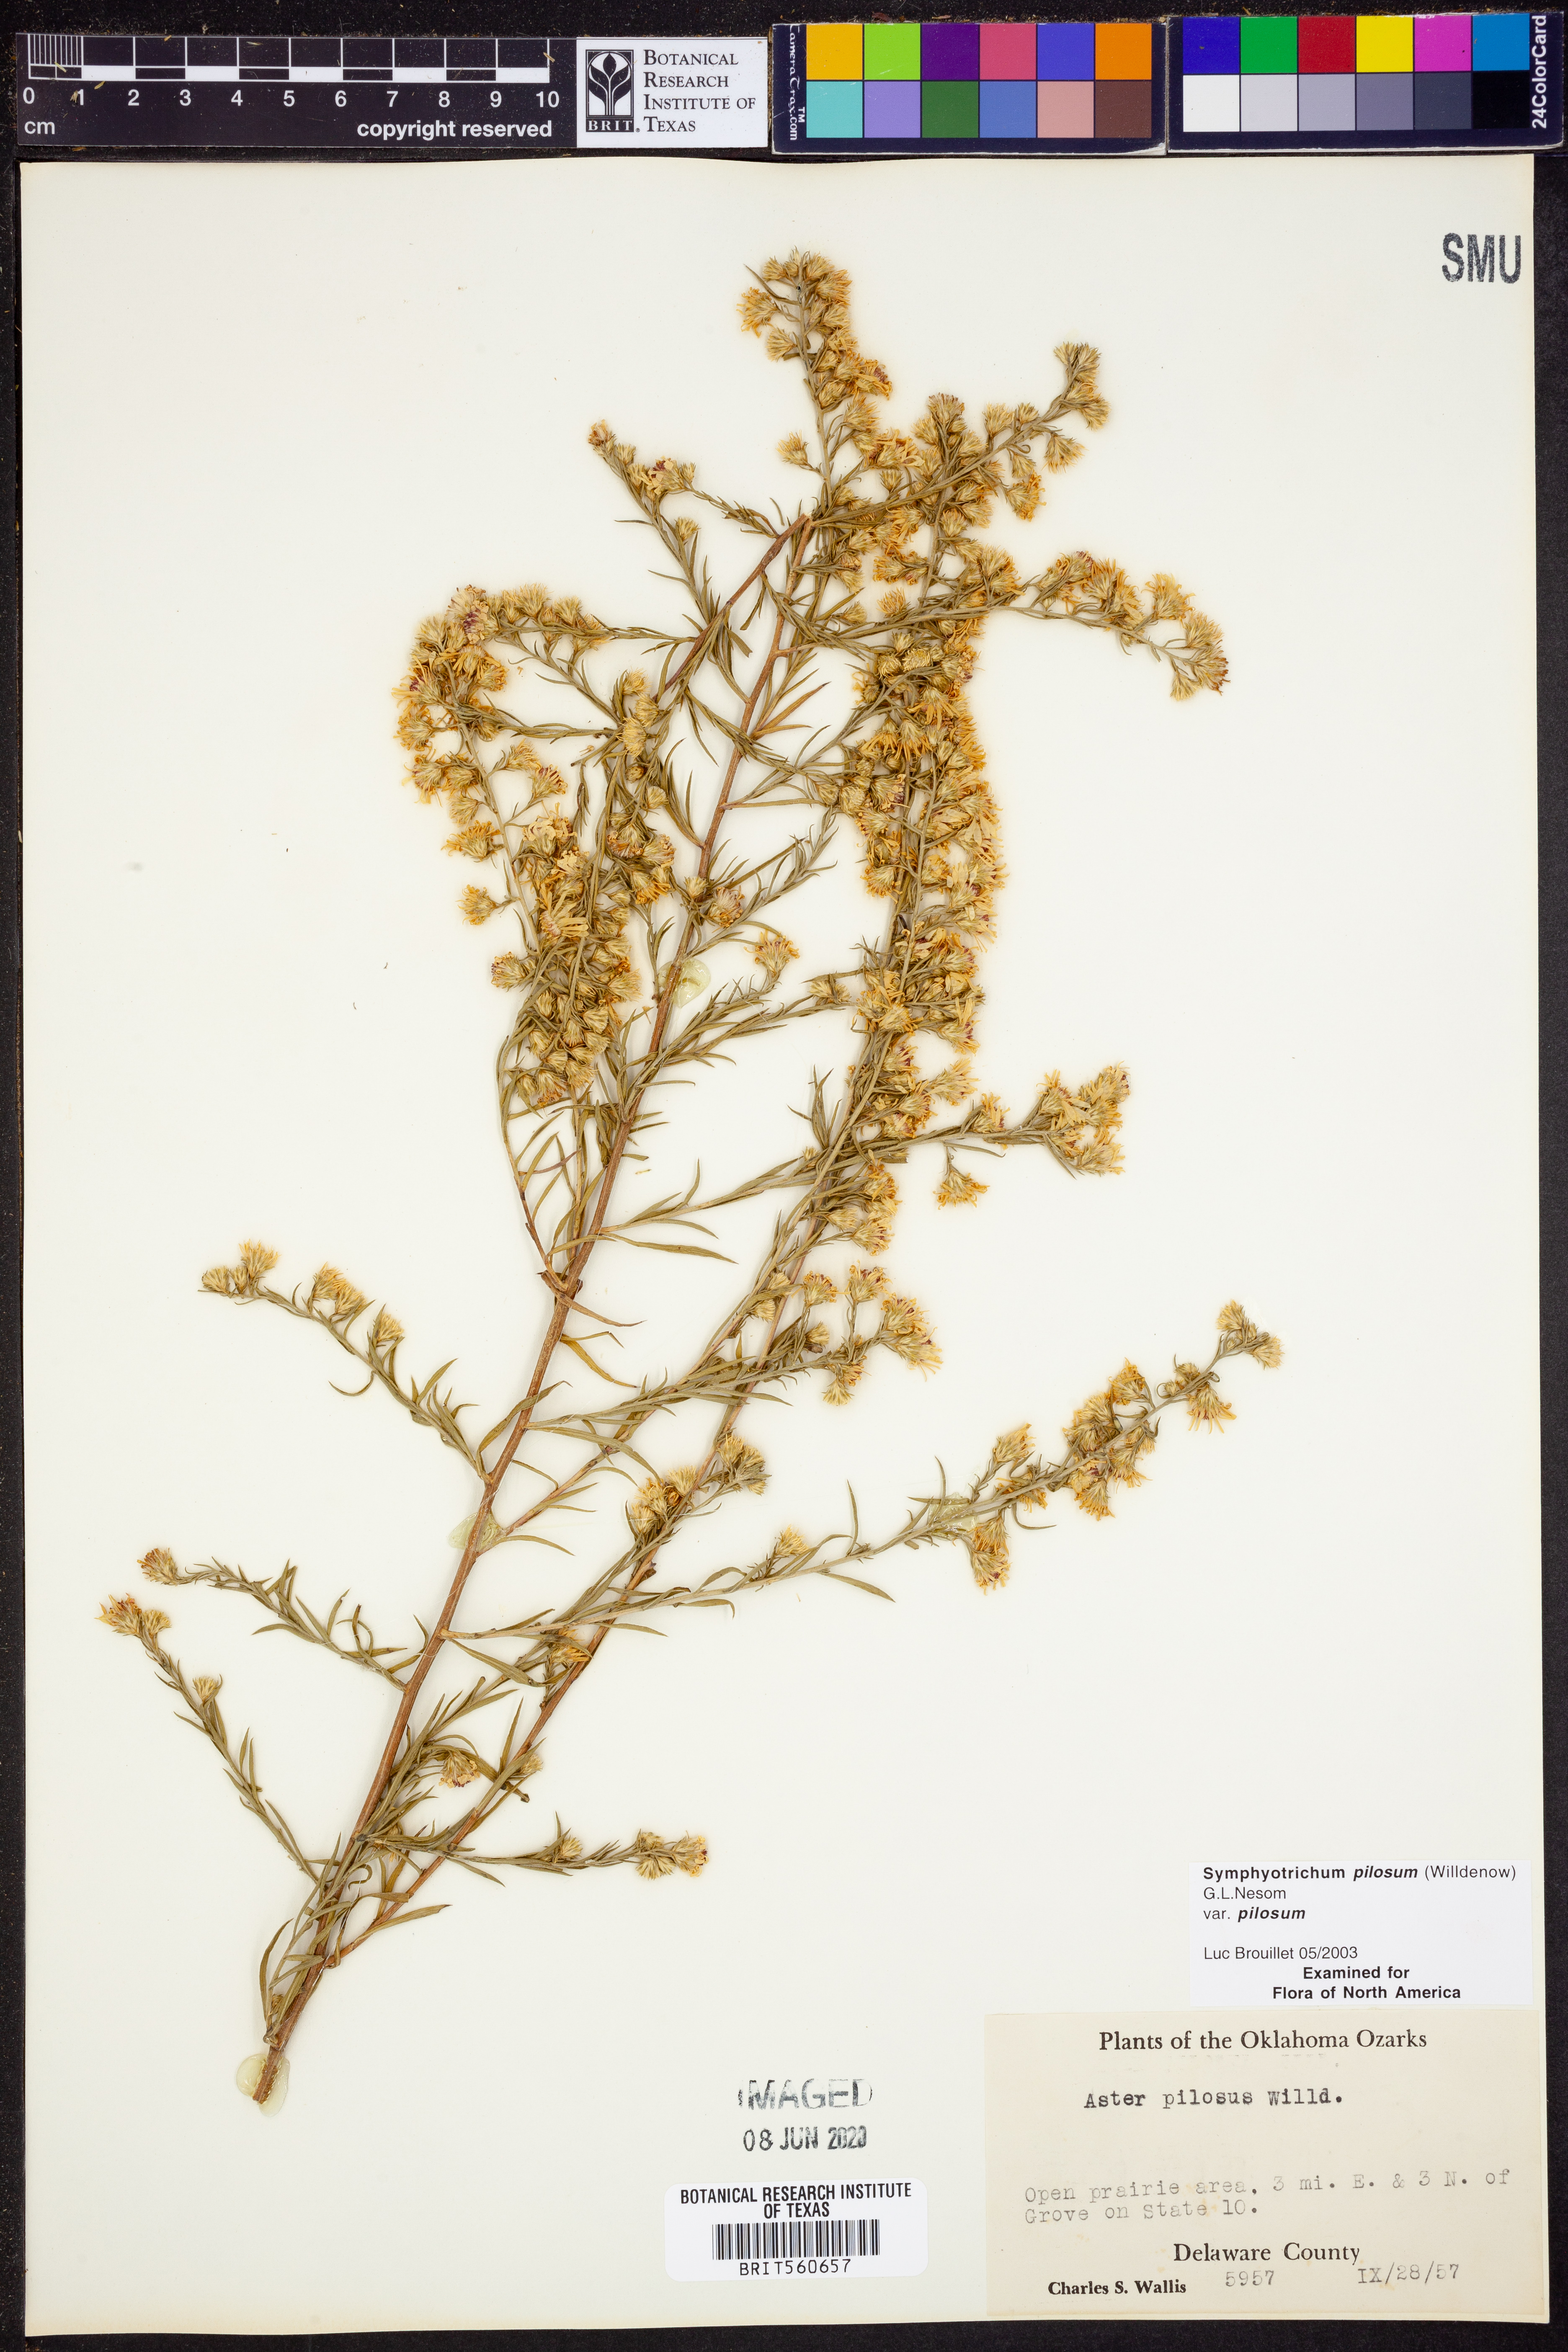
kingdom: Plantae
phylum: Tracheophyta
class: Magnoliopsida
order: Asterales
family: Asteraceae
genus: Symphyotrichum
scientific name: Symphyotrichum pilosum
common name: Awl aster
